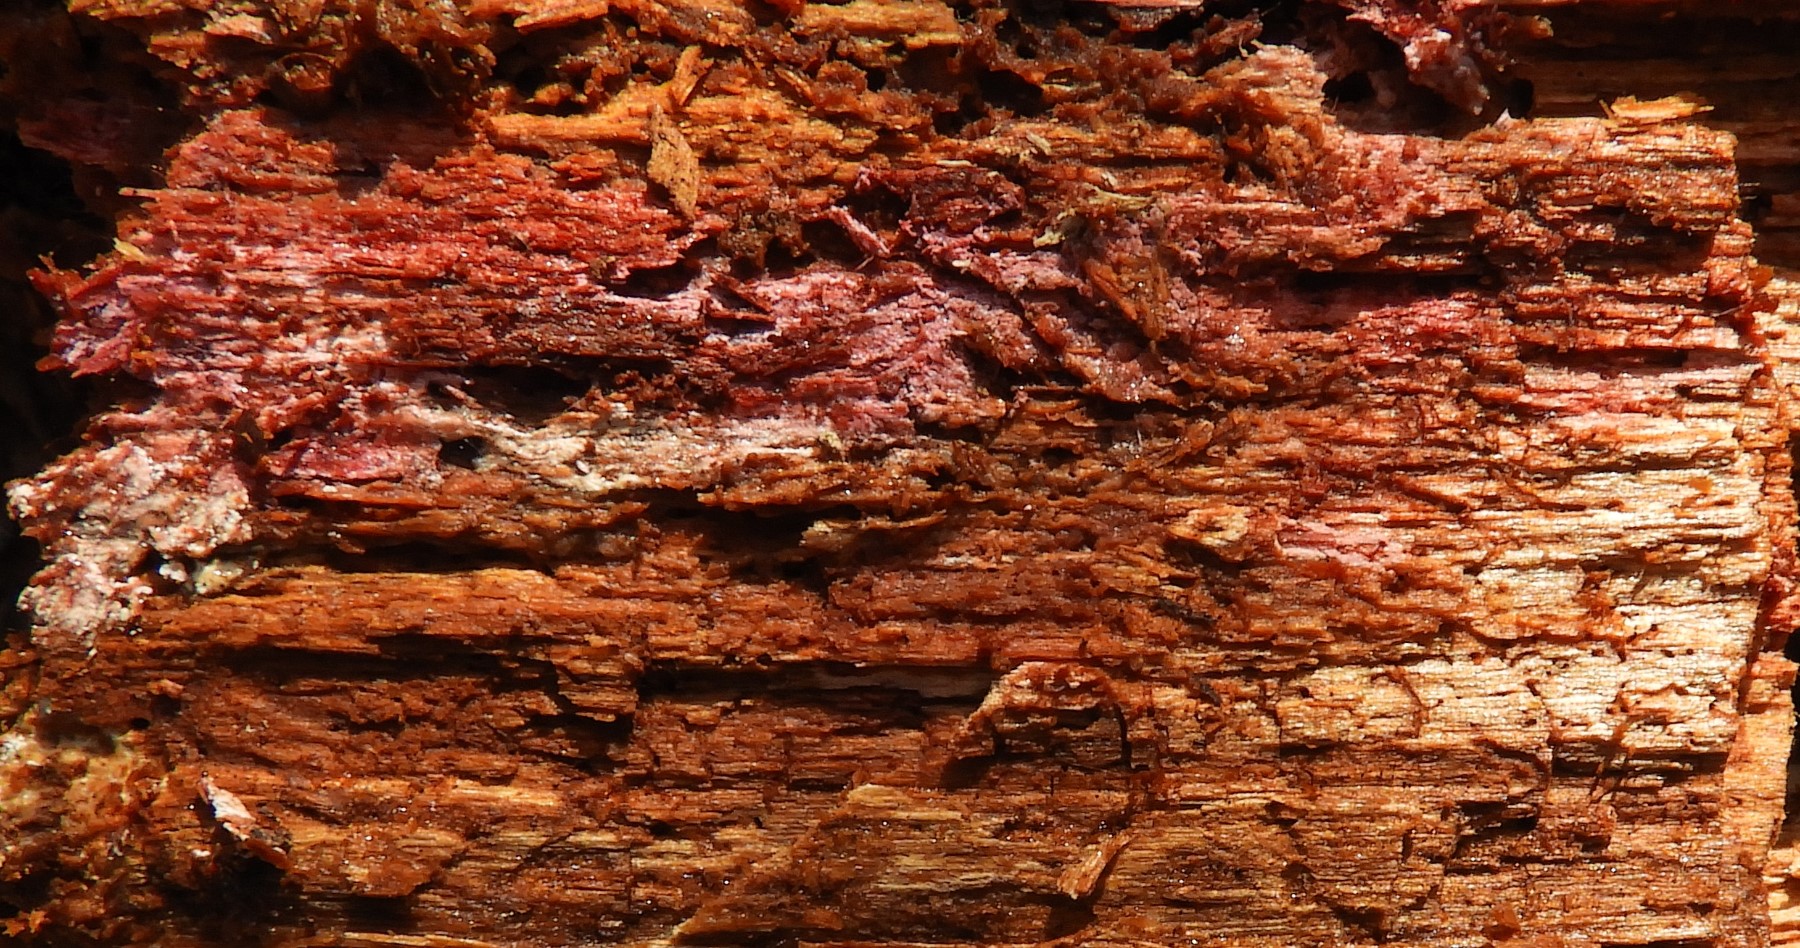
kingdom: Fungi
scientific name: Fungi
